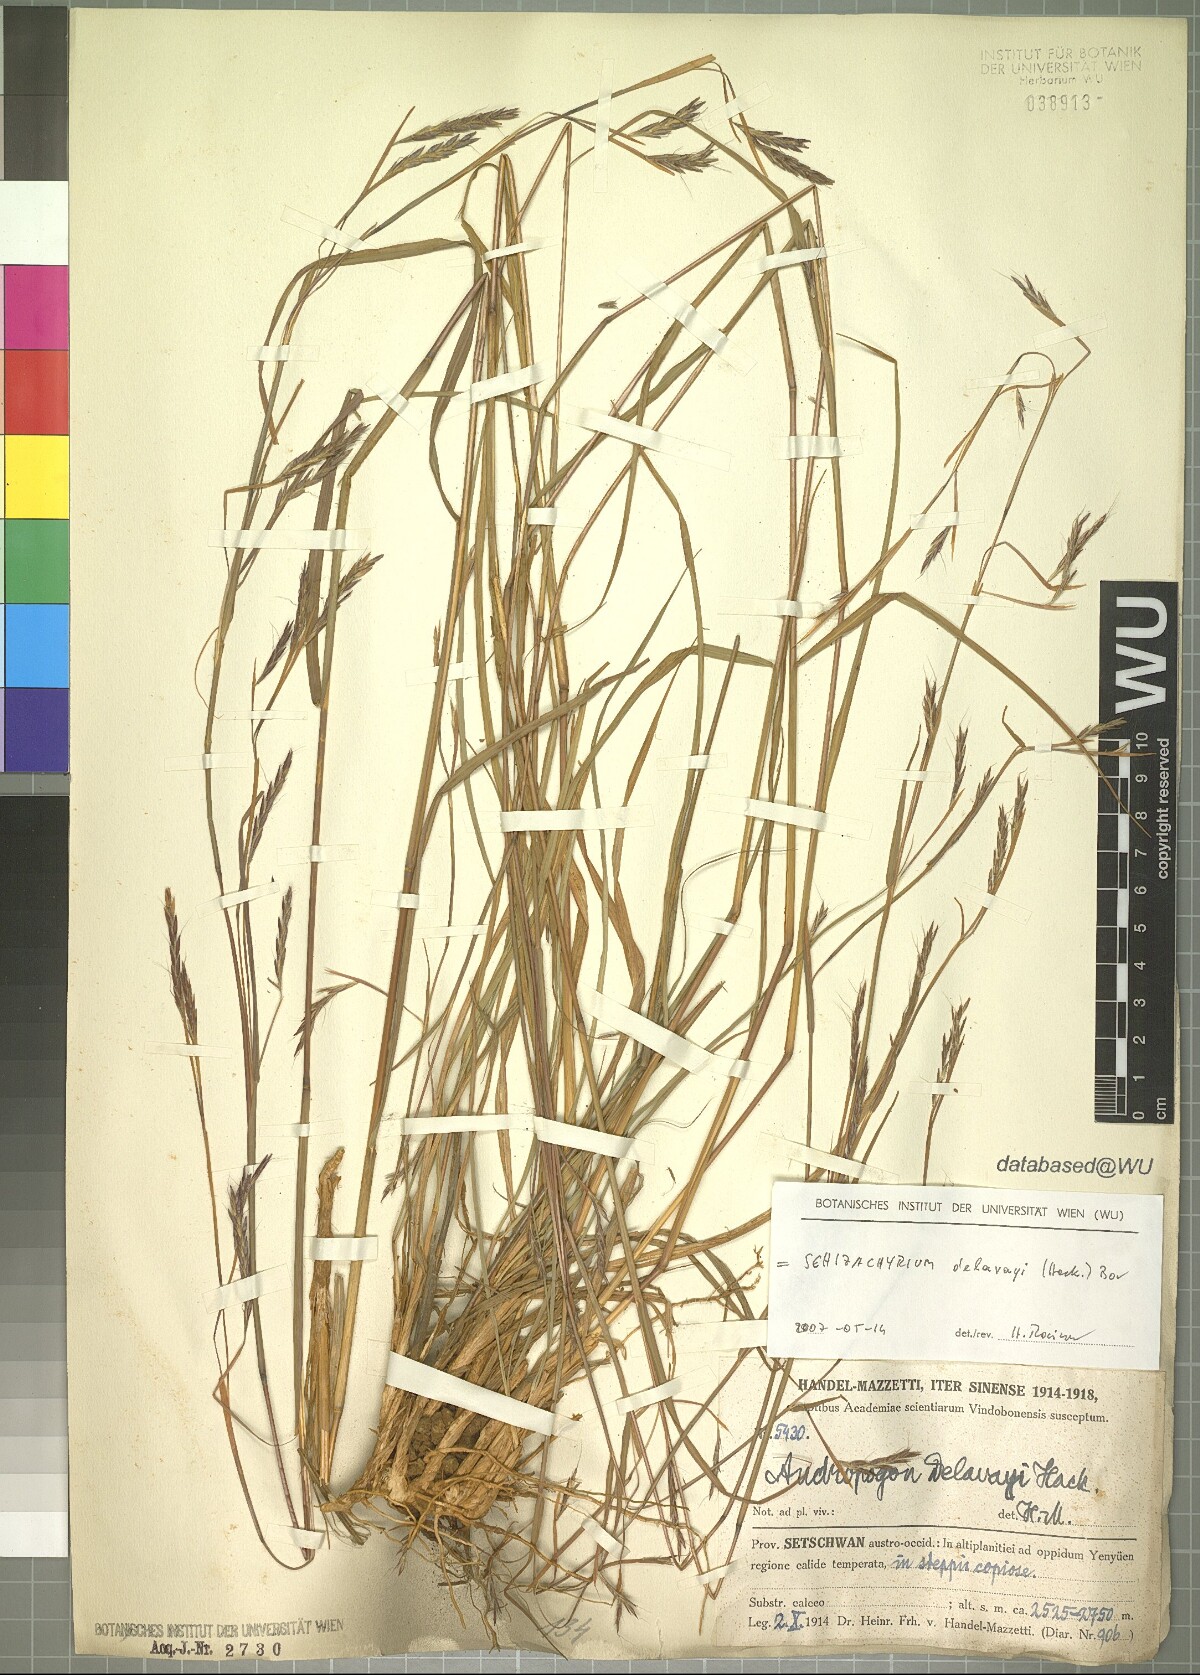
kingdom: Plantae
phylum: Tracheophyta
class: Liliopsida
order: Poales
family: Poaceae
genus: Schizachyrium
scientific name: Schizachyrium delavayi
